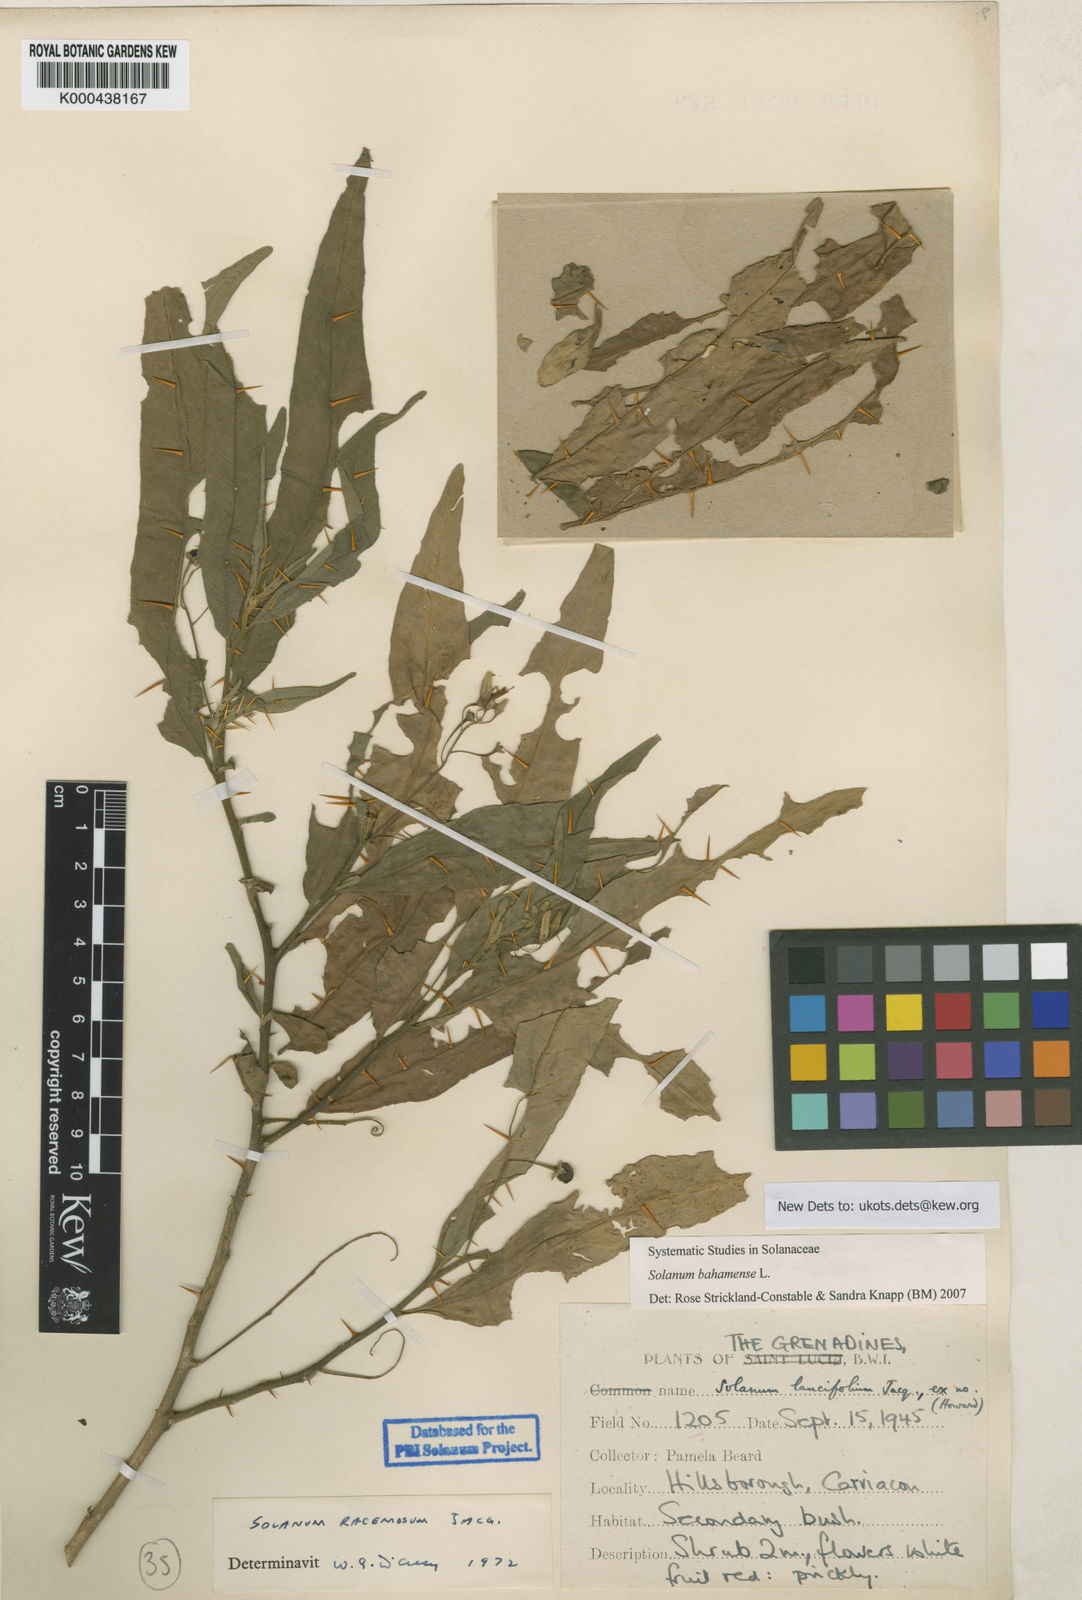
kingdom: Plantae
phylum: Tracheophyta
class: Magnoliopsida
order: Solanales
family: Solanaceae
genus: Solanum
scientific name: Solanum bahamense
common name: Canker-berry
